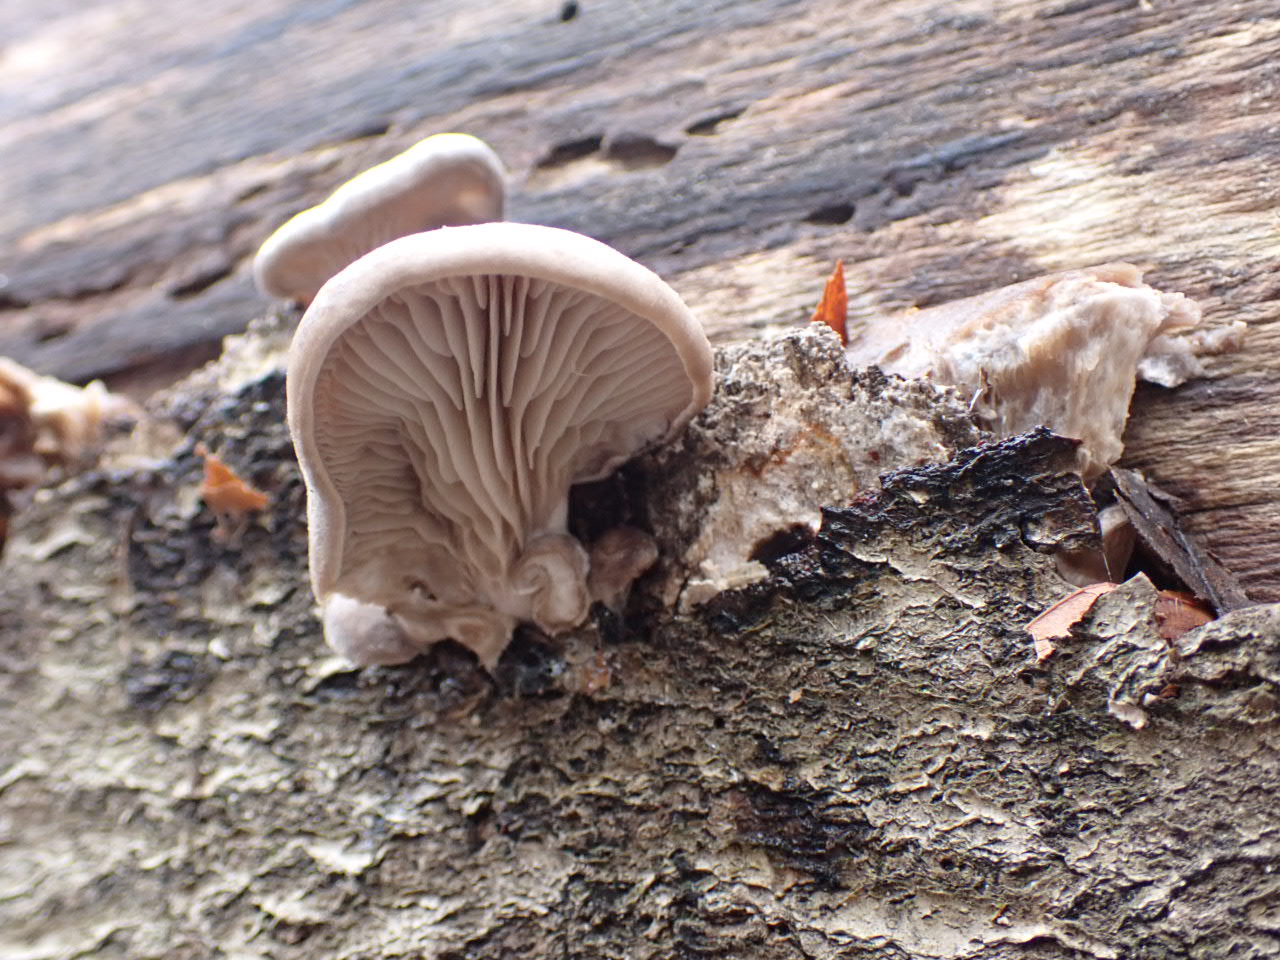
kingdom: Fungi
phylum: Basidiomycota
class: Agaricomycetes
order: Agaricales
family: Pleurotaceae
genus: Pleurotus
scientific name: Pleurotus ostreatus
